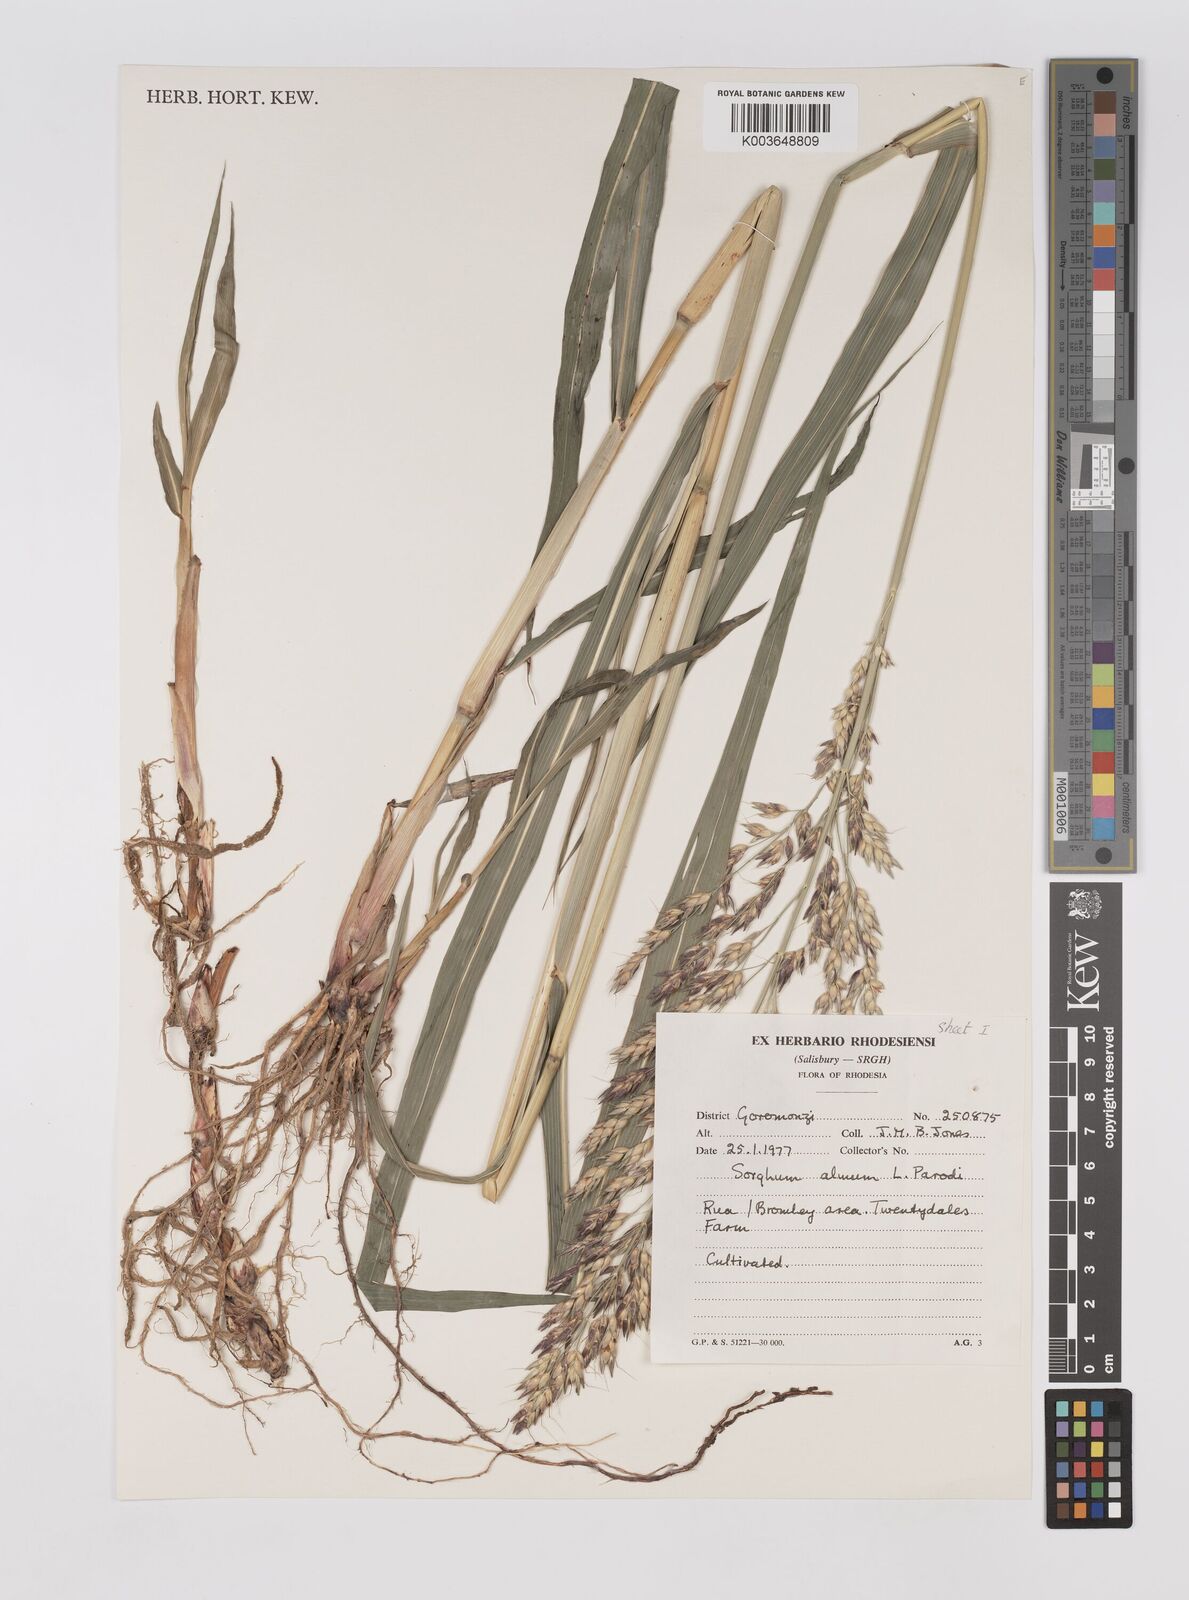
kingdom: Plantae
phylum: Tracheophyta
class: Liliopsida
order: Poales
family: Poaceae
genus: Cymbopogon
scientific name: Cymbopogon procerus
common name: Lemongrass
